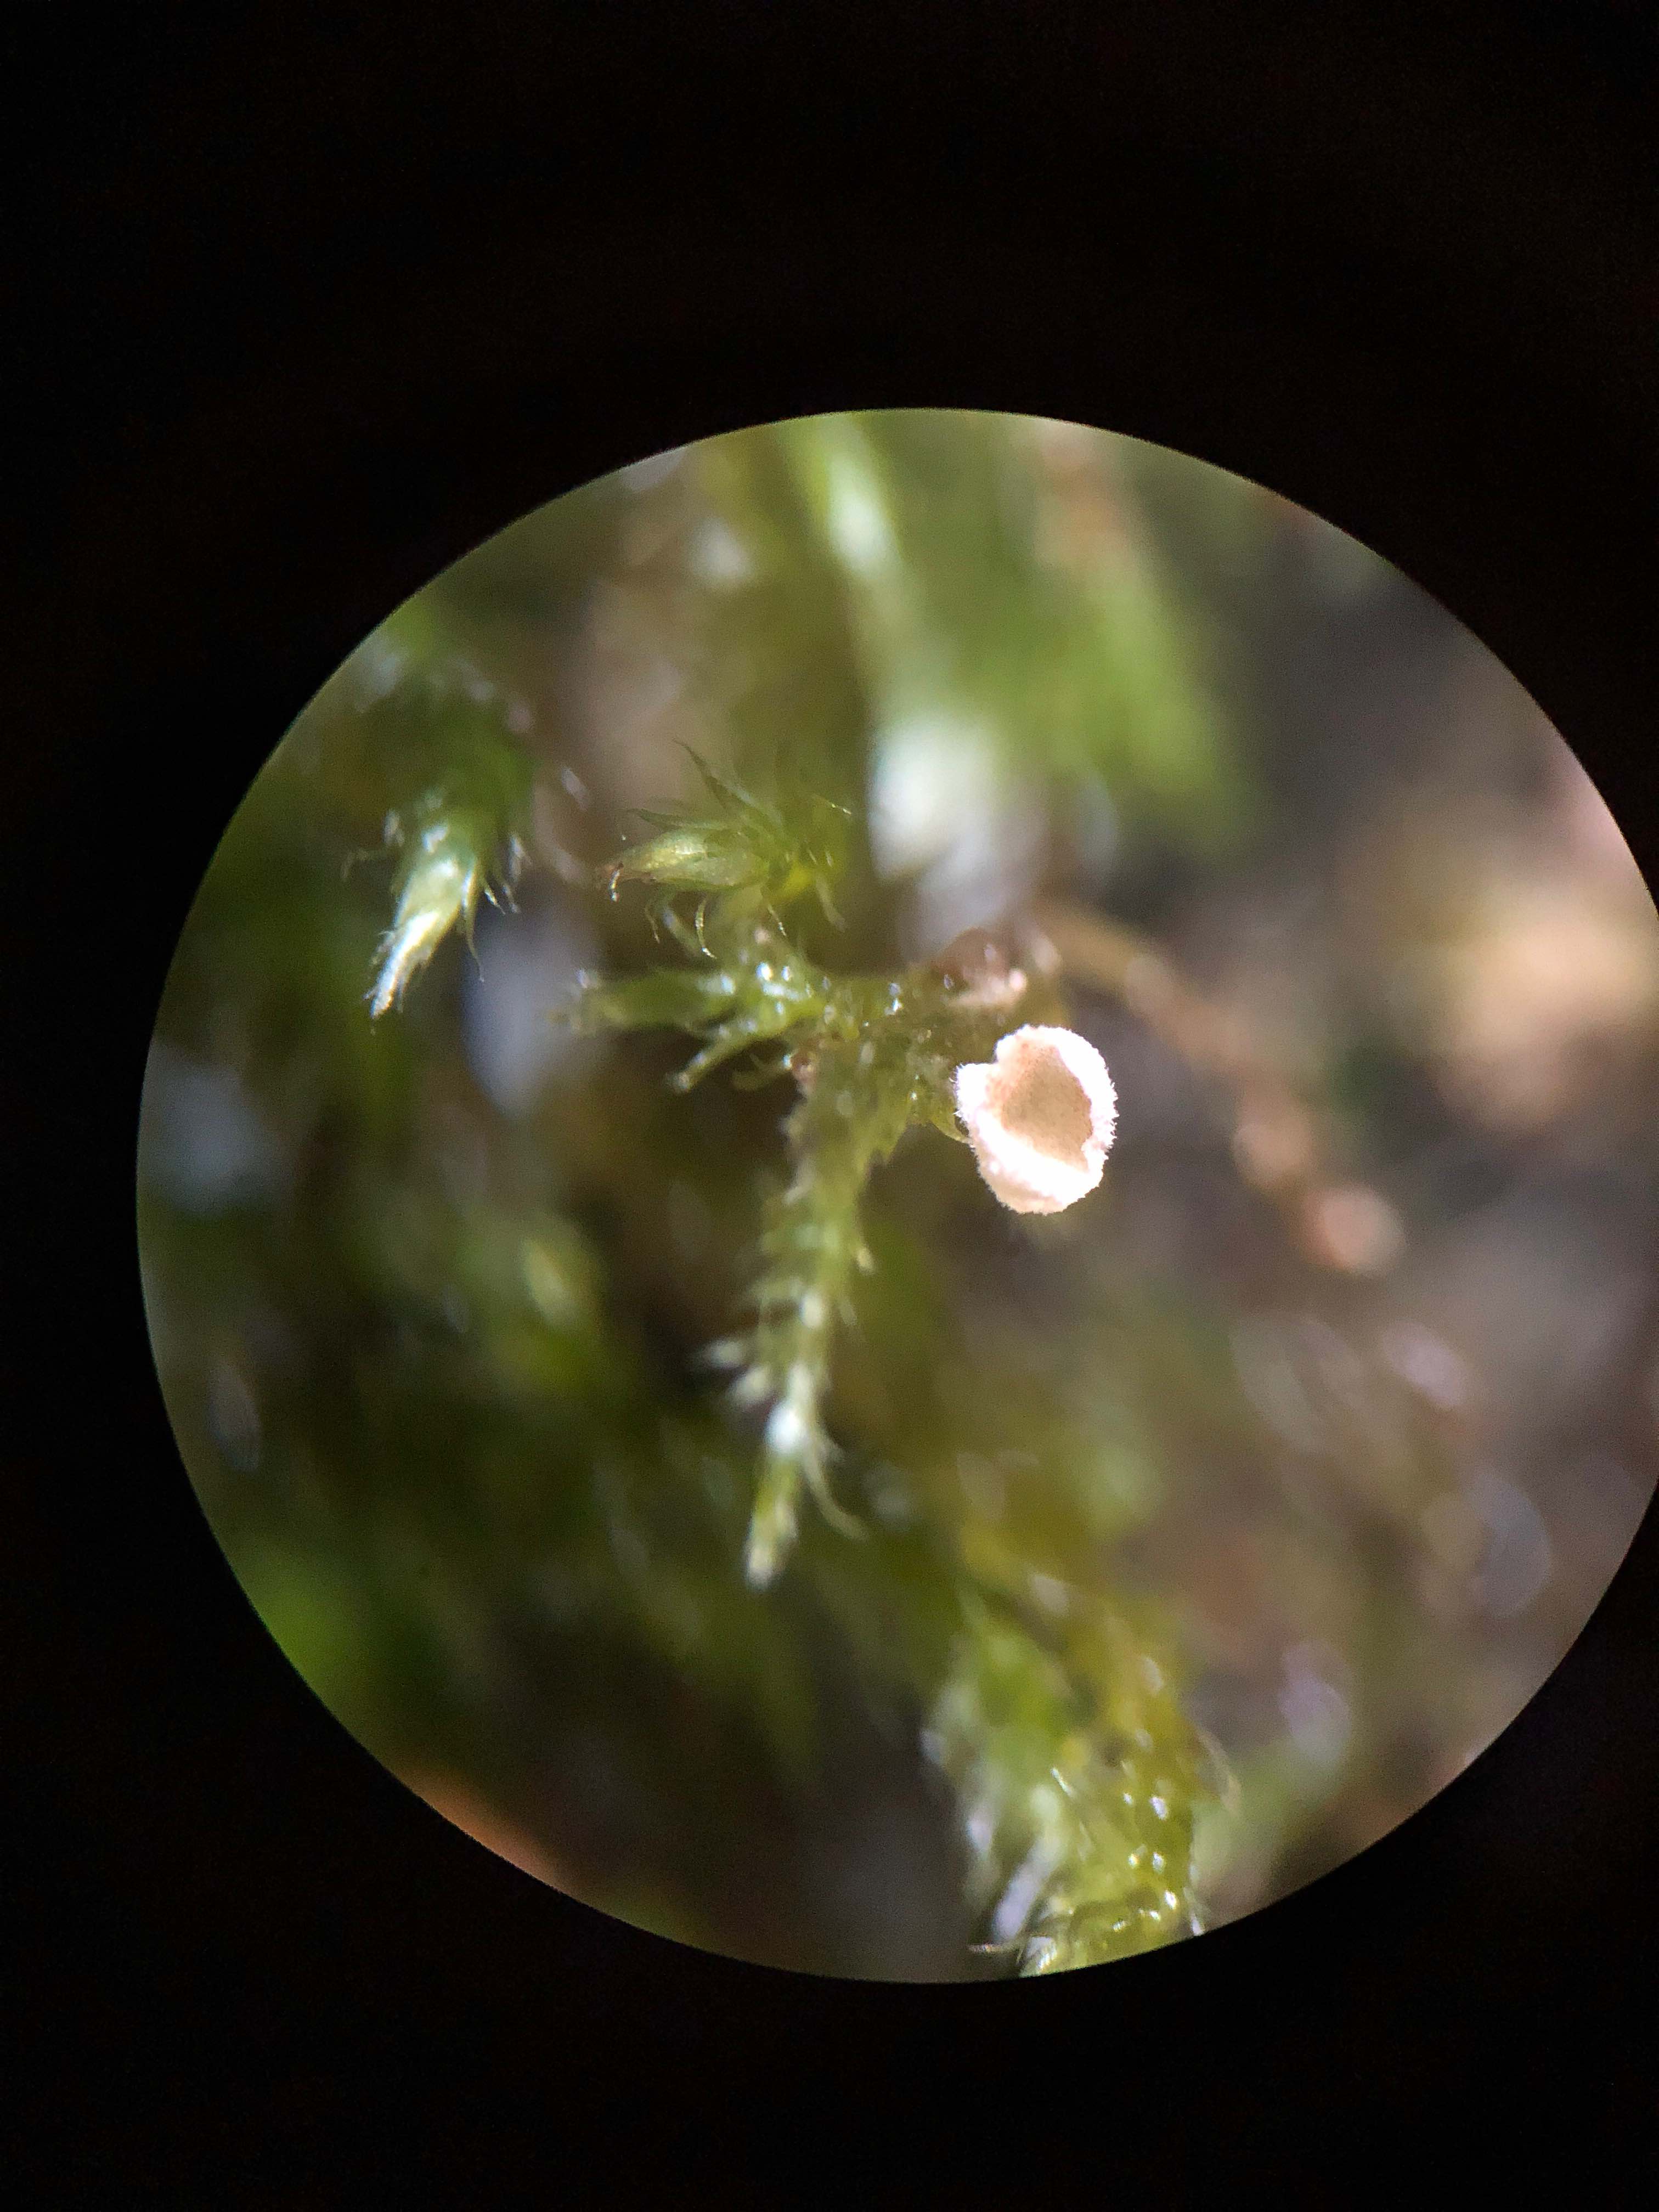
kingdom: Fungi
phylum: Basidiomycota
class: Agaricomycetes
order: Agaricales
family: Chromocyphellaceae
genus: Chromocyphella
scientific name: Chromocyphella muscicola
